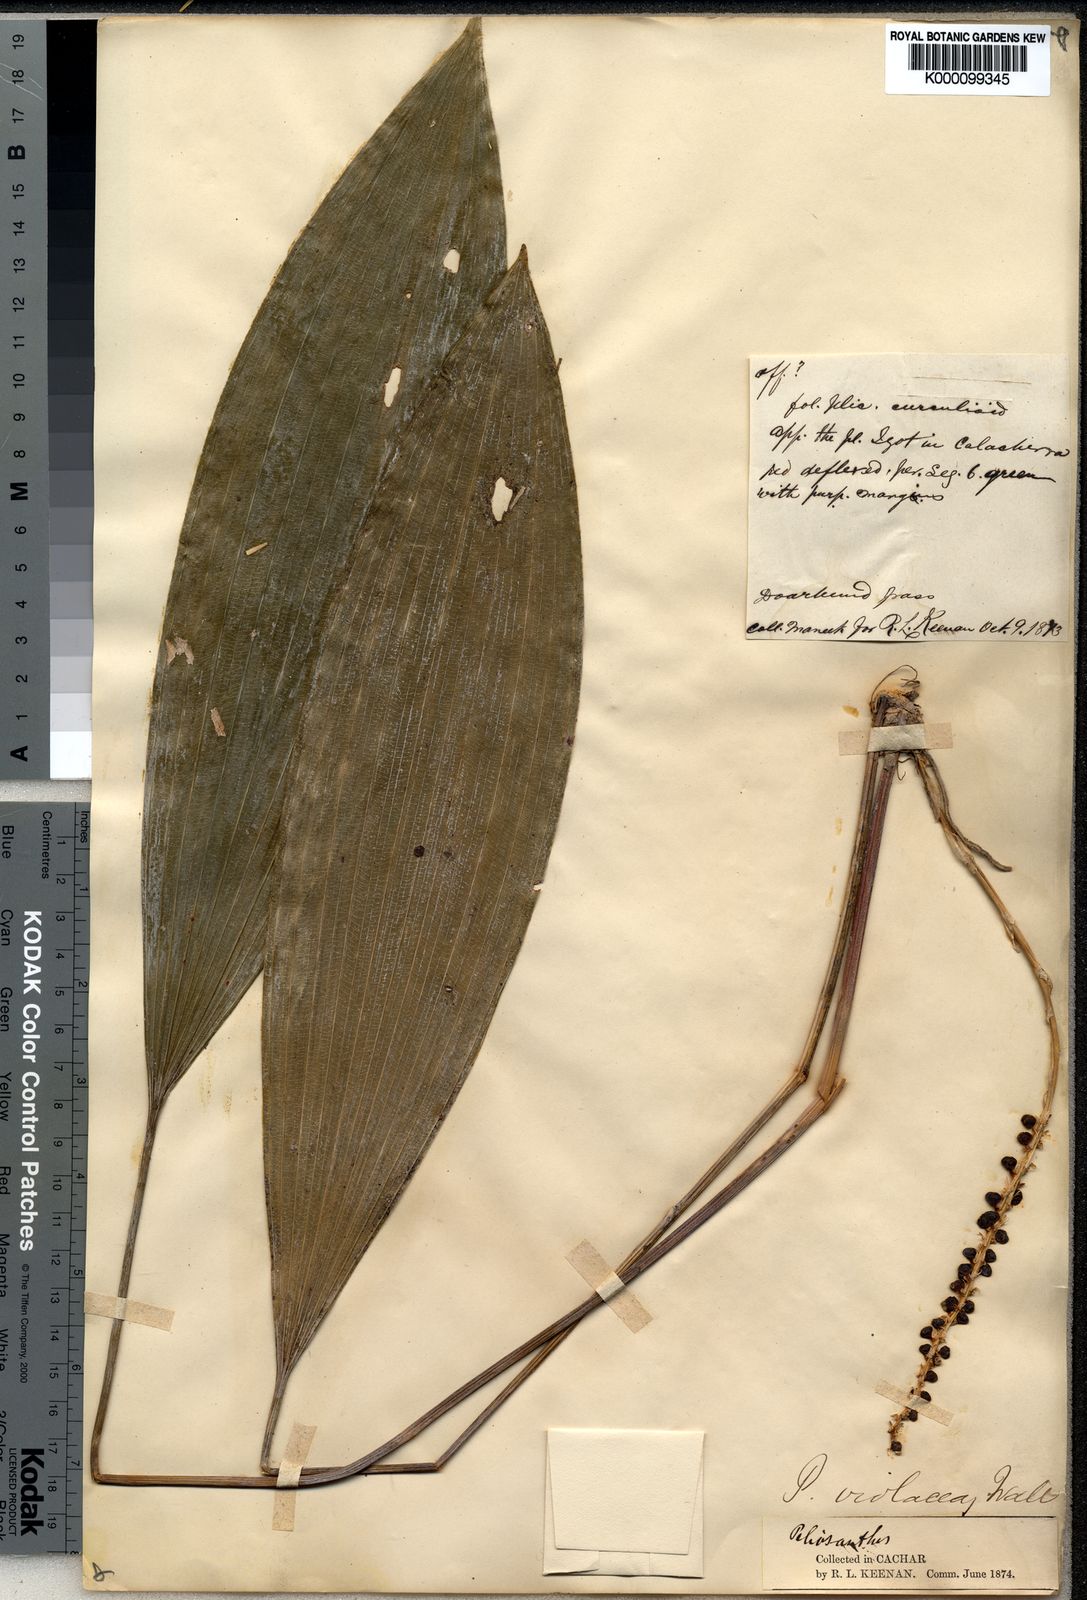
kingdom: Plantae
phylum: Tracheophyta
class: Liliopsida
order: Asparagales
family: Asparagaceae
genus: Peliosanthes
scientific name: Peliosanthes teta
